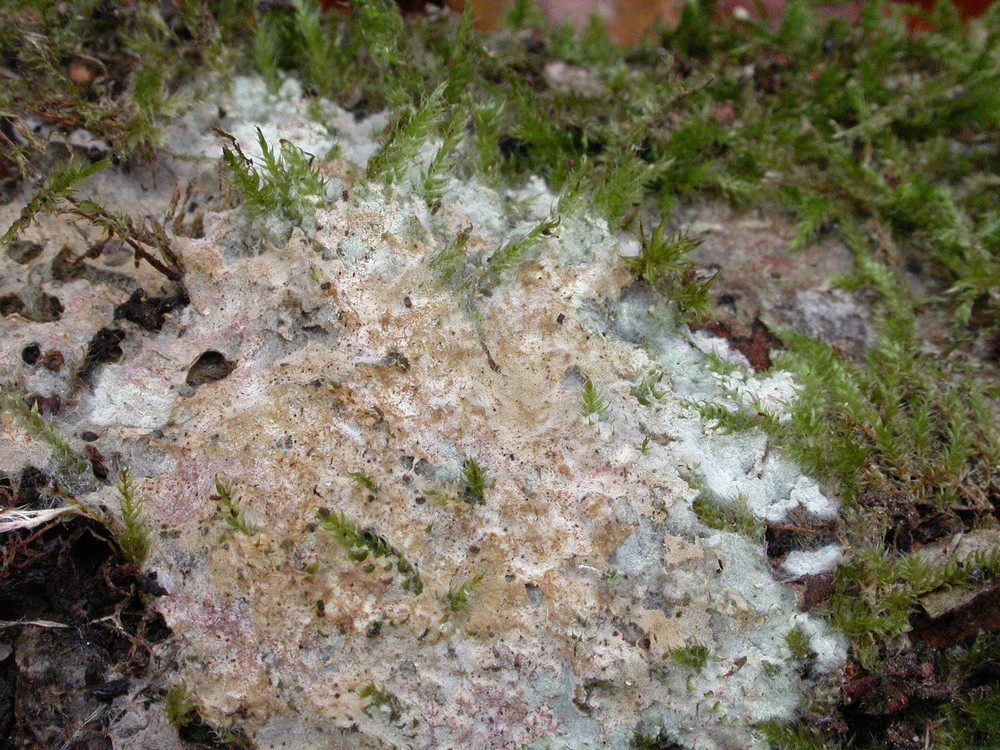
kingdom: Fungi
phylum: Basidiomycota
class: Agaricomycetes
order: Thelephorales
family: Thelephoraceae
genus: Tomentellopsis
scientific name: Tomentellopsis echinospora
